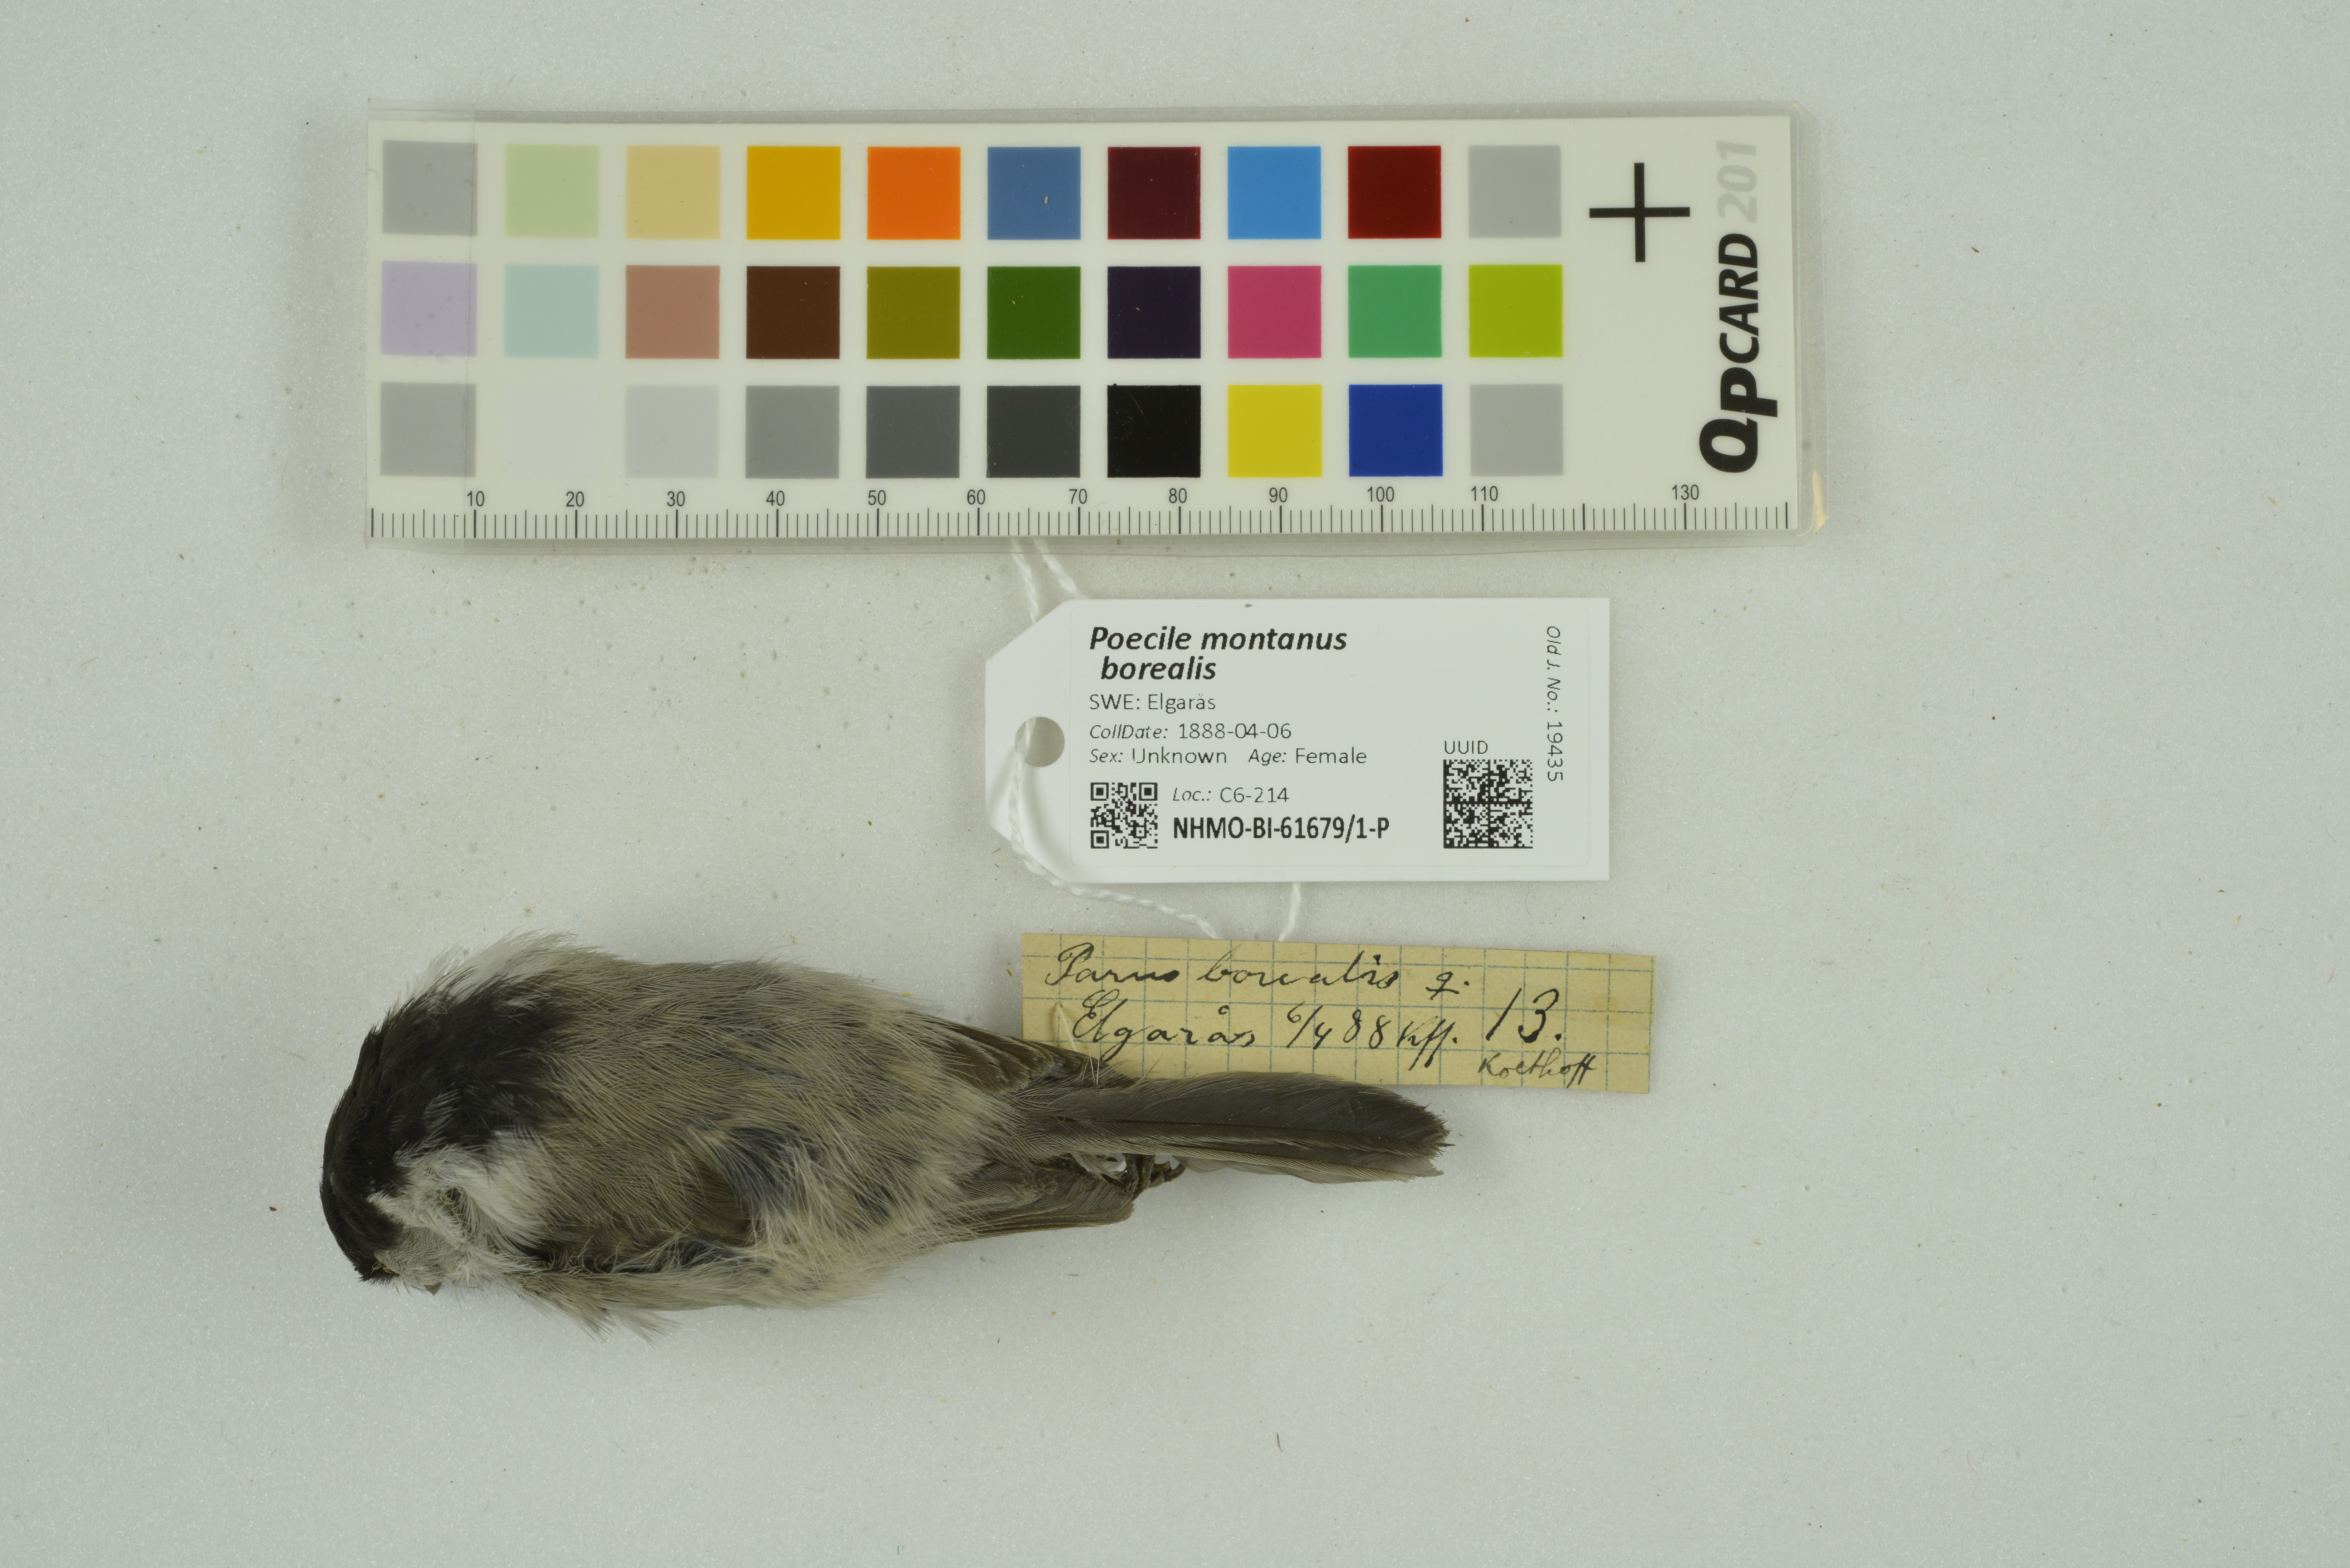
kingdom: Animalia
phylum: Chordata
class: Aves
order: Passeriformes
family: Paridae
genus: Poecile
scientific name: Poecile montanus
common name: Willow tit
